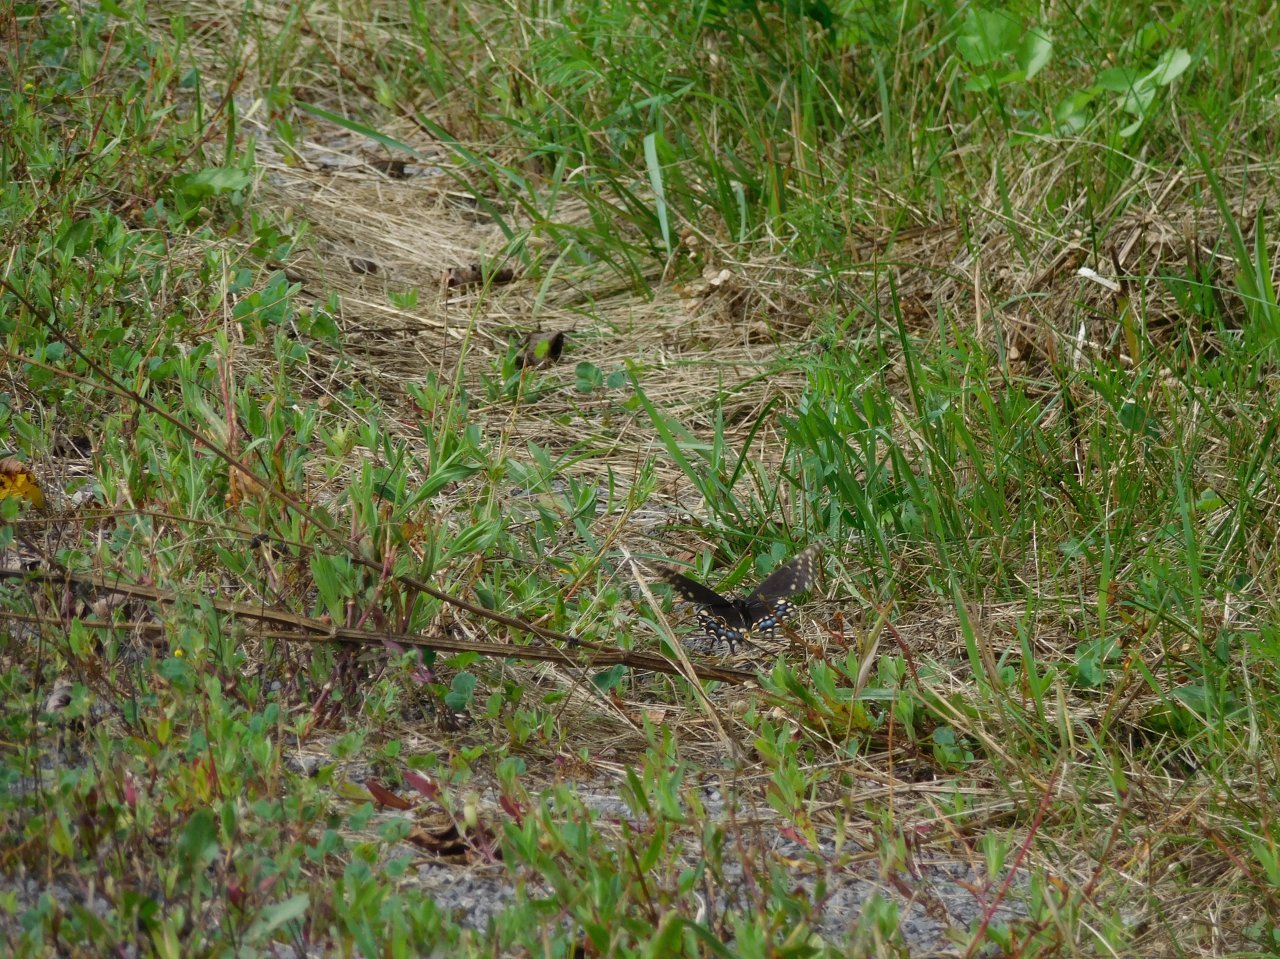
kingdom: Animalia
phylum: Arthropoda
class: Insecta
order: Lepidoptera
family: Papilionidae
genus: Papilio
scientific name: Papilio polyxenes
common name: Black Swallowtail
